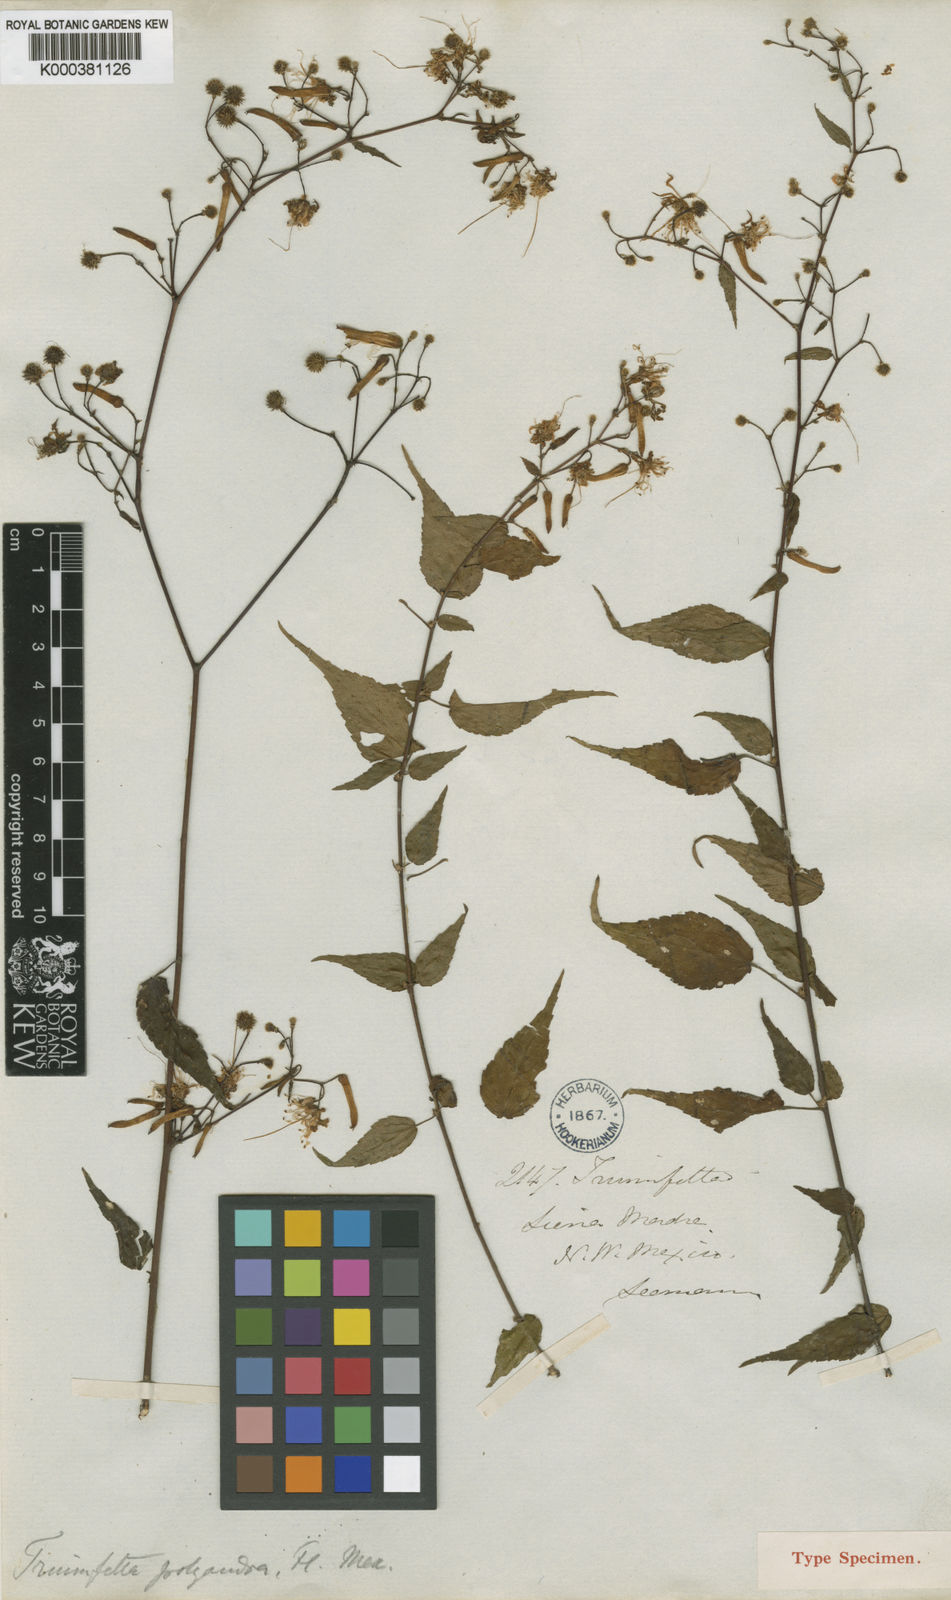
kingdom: Plantae
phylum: Tracheophyta
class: Magnoliopsida
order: Malvales
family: Malvaceae
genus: Triumfetta
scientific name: Triumfetta goldmanii
